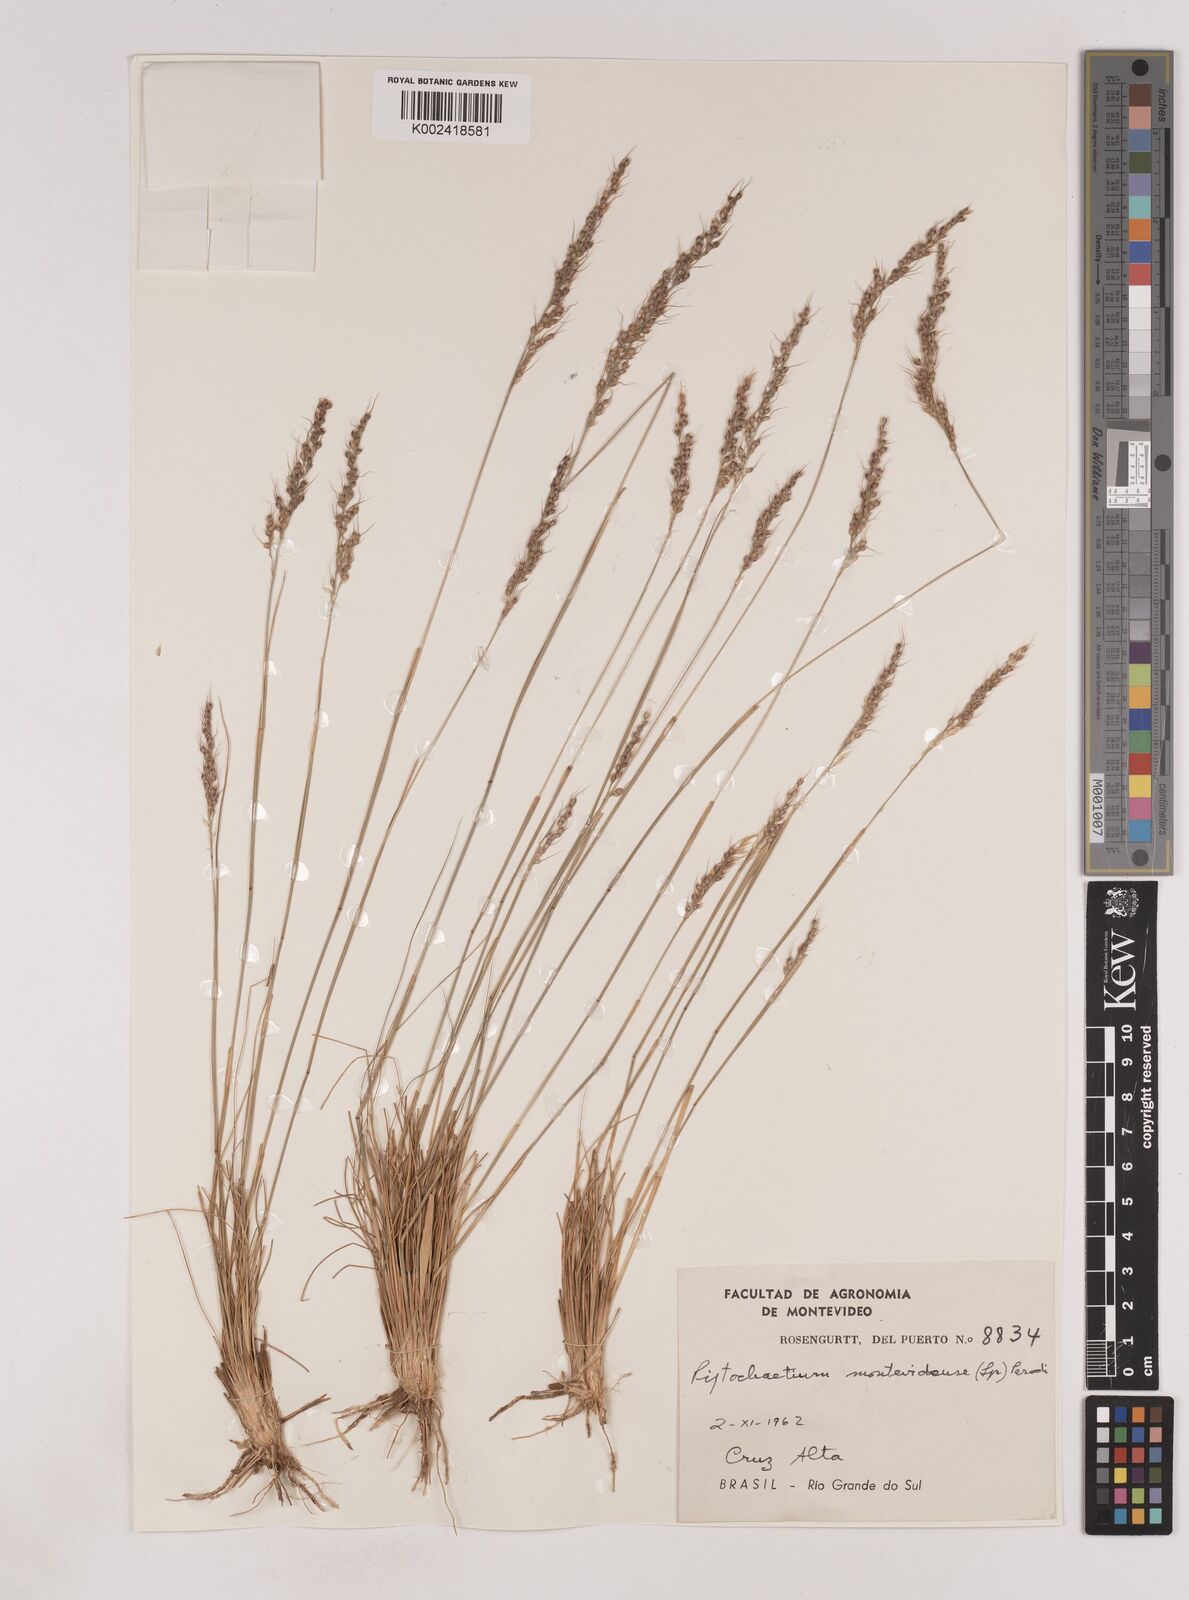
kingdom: Plantae
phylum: Tracheophyta
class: Liliopsida
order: Poales
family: Poaceae
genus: Piptochaetium
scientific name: Piptochaetium montevidense
